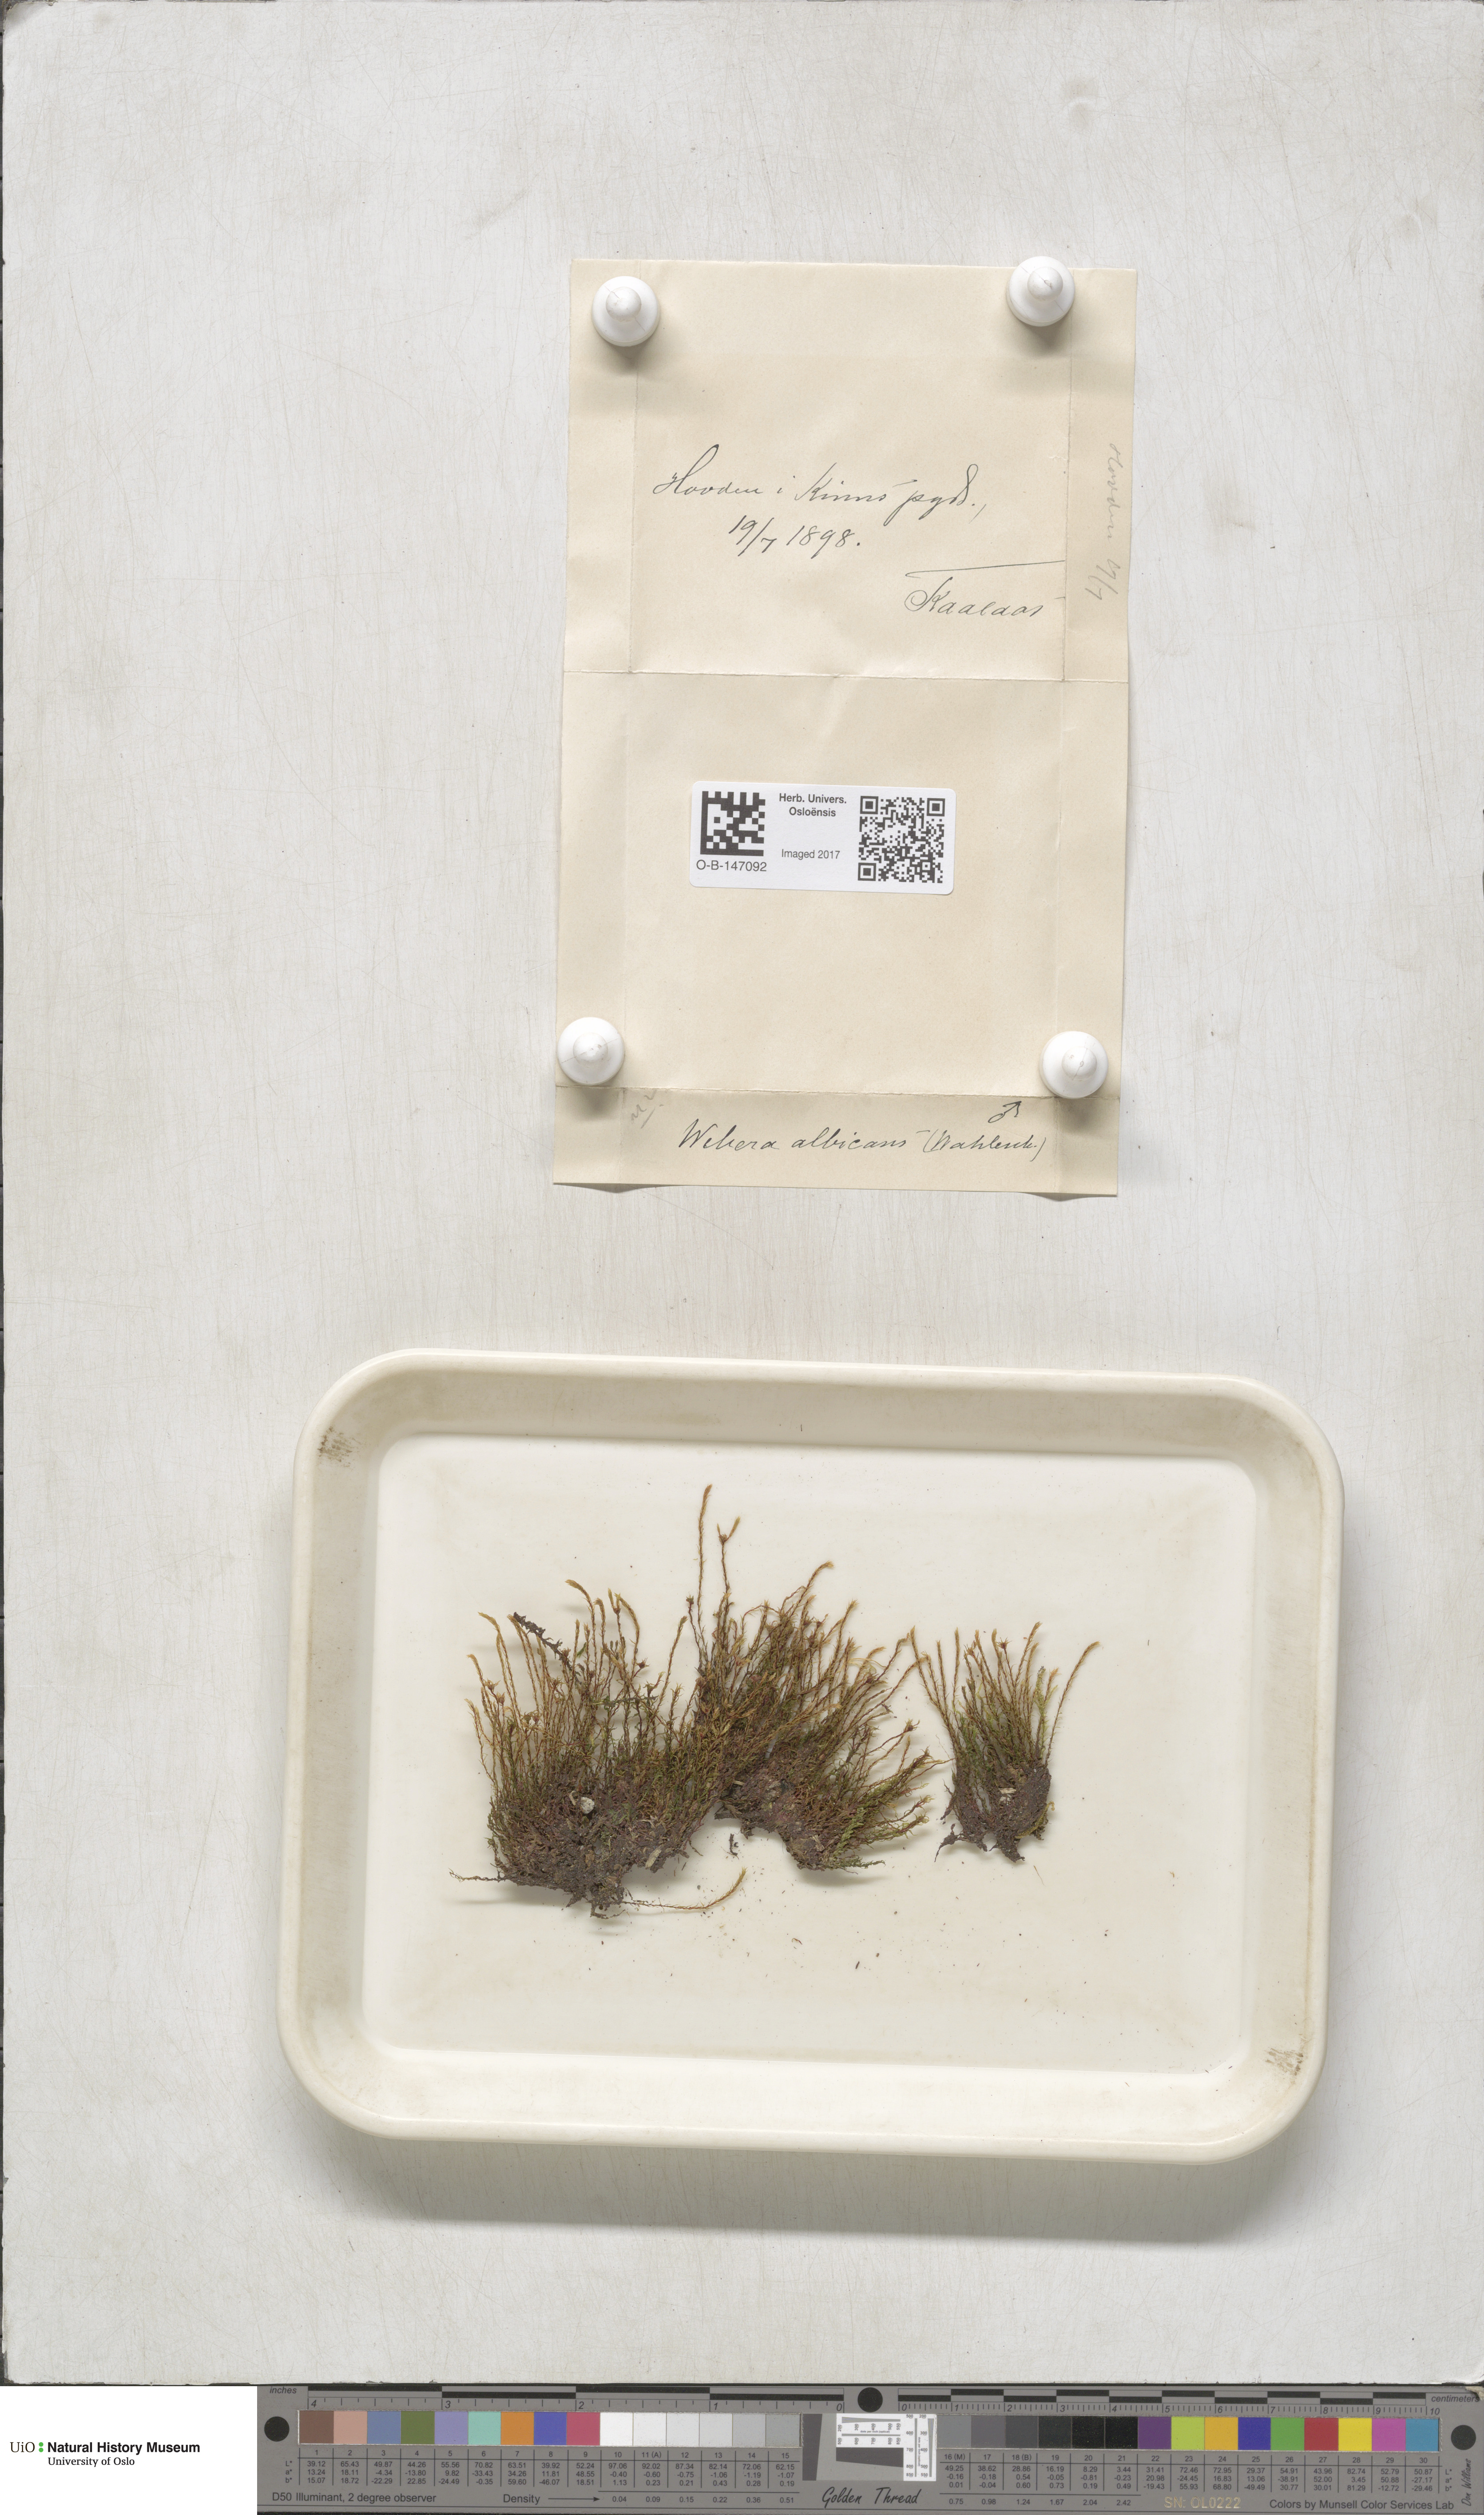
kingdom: Plantae
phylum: Bryophyta
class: Bryopsida
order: Bryales
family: Mniaceae
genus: Pohlia
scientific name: Pohlia wahlenbergii
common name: Wahlenberg's nodding moss
